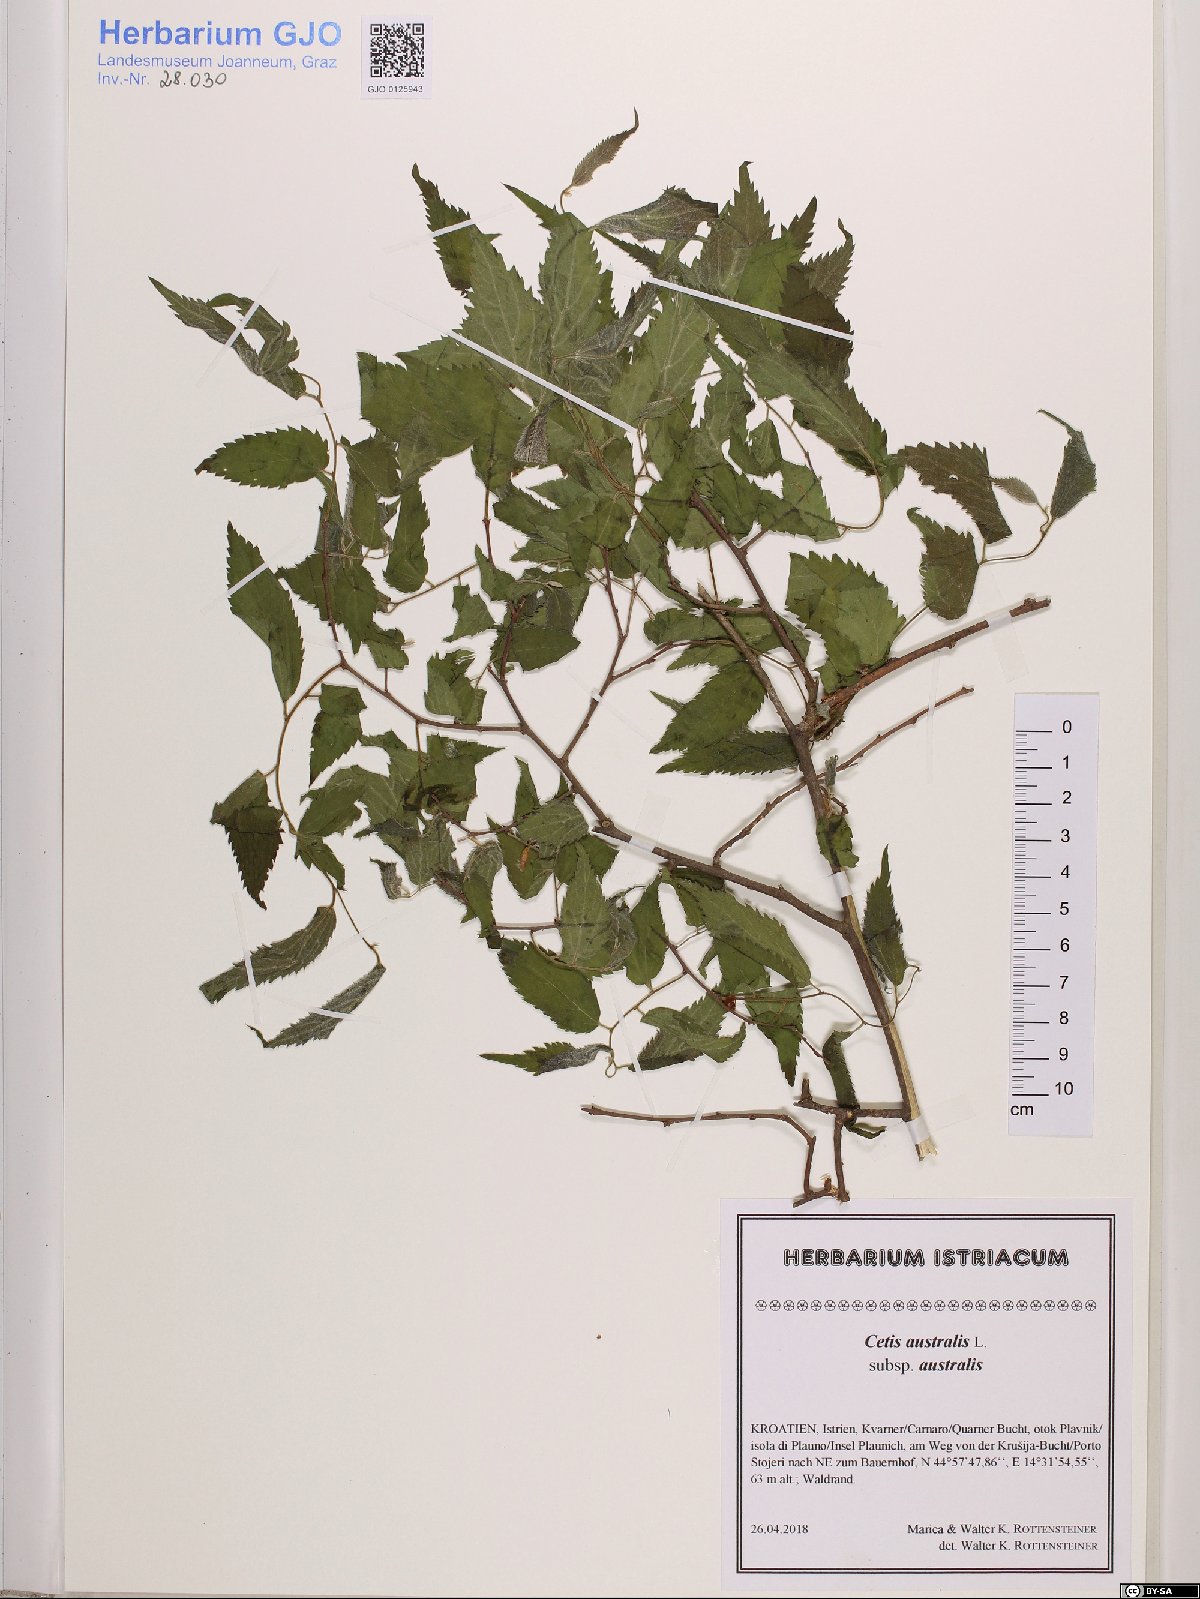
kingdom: Plantae
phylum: Tracheophyta
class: Magnoliopsida
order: Rosales
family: Cannabaceae
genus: Celtis
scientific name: Celtis australis
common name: European hackberry
